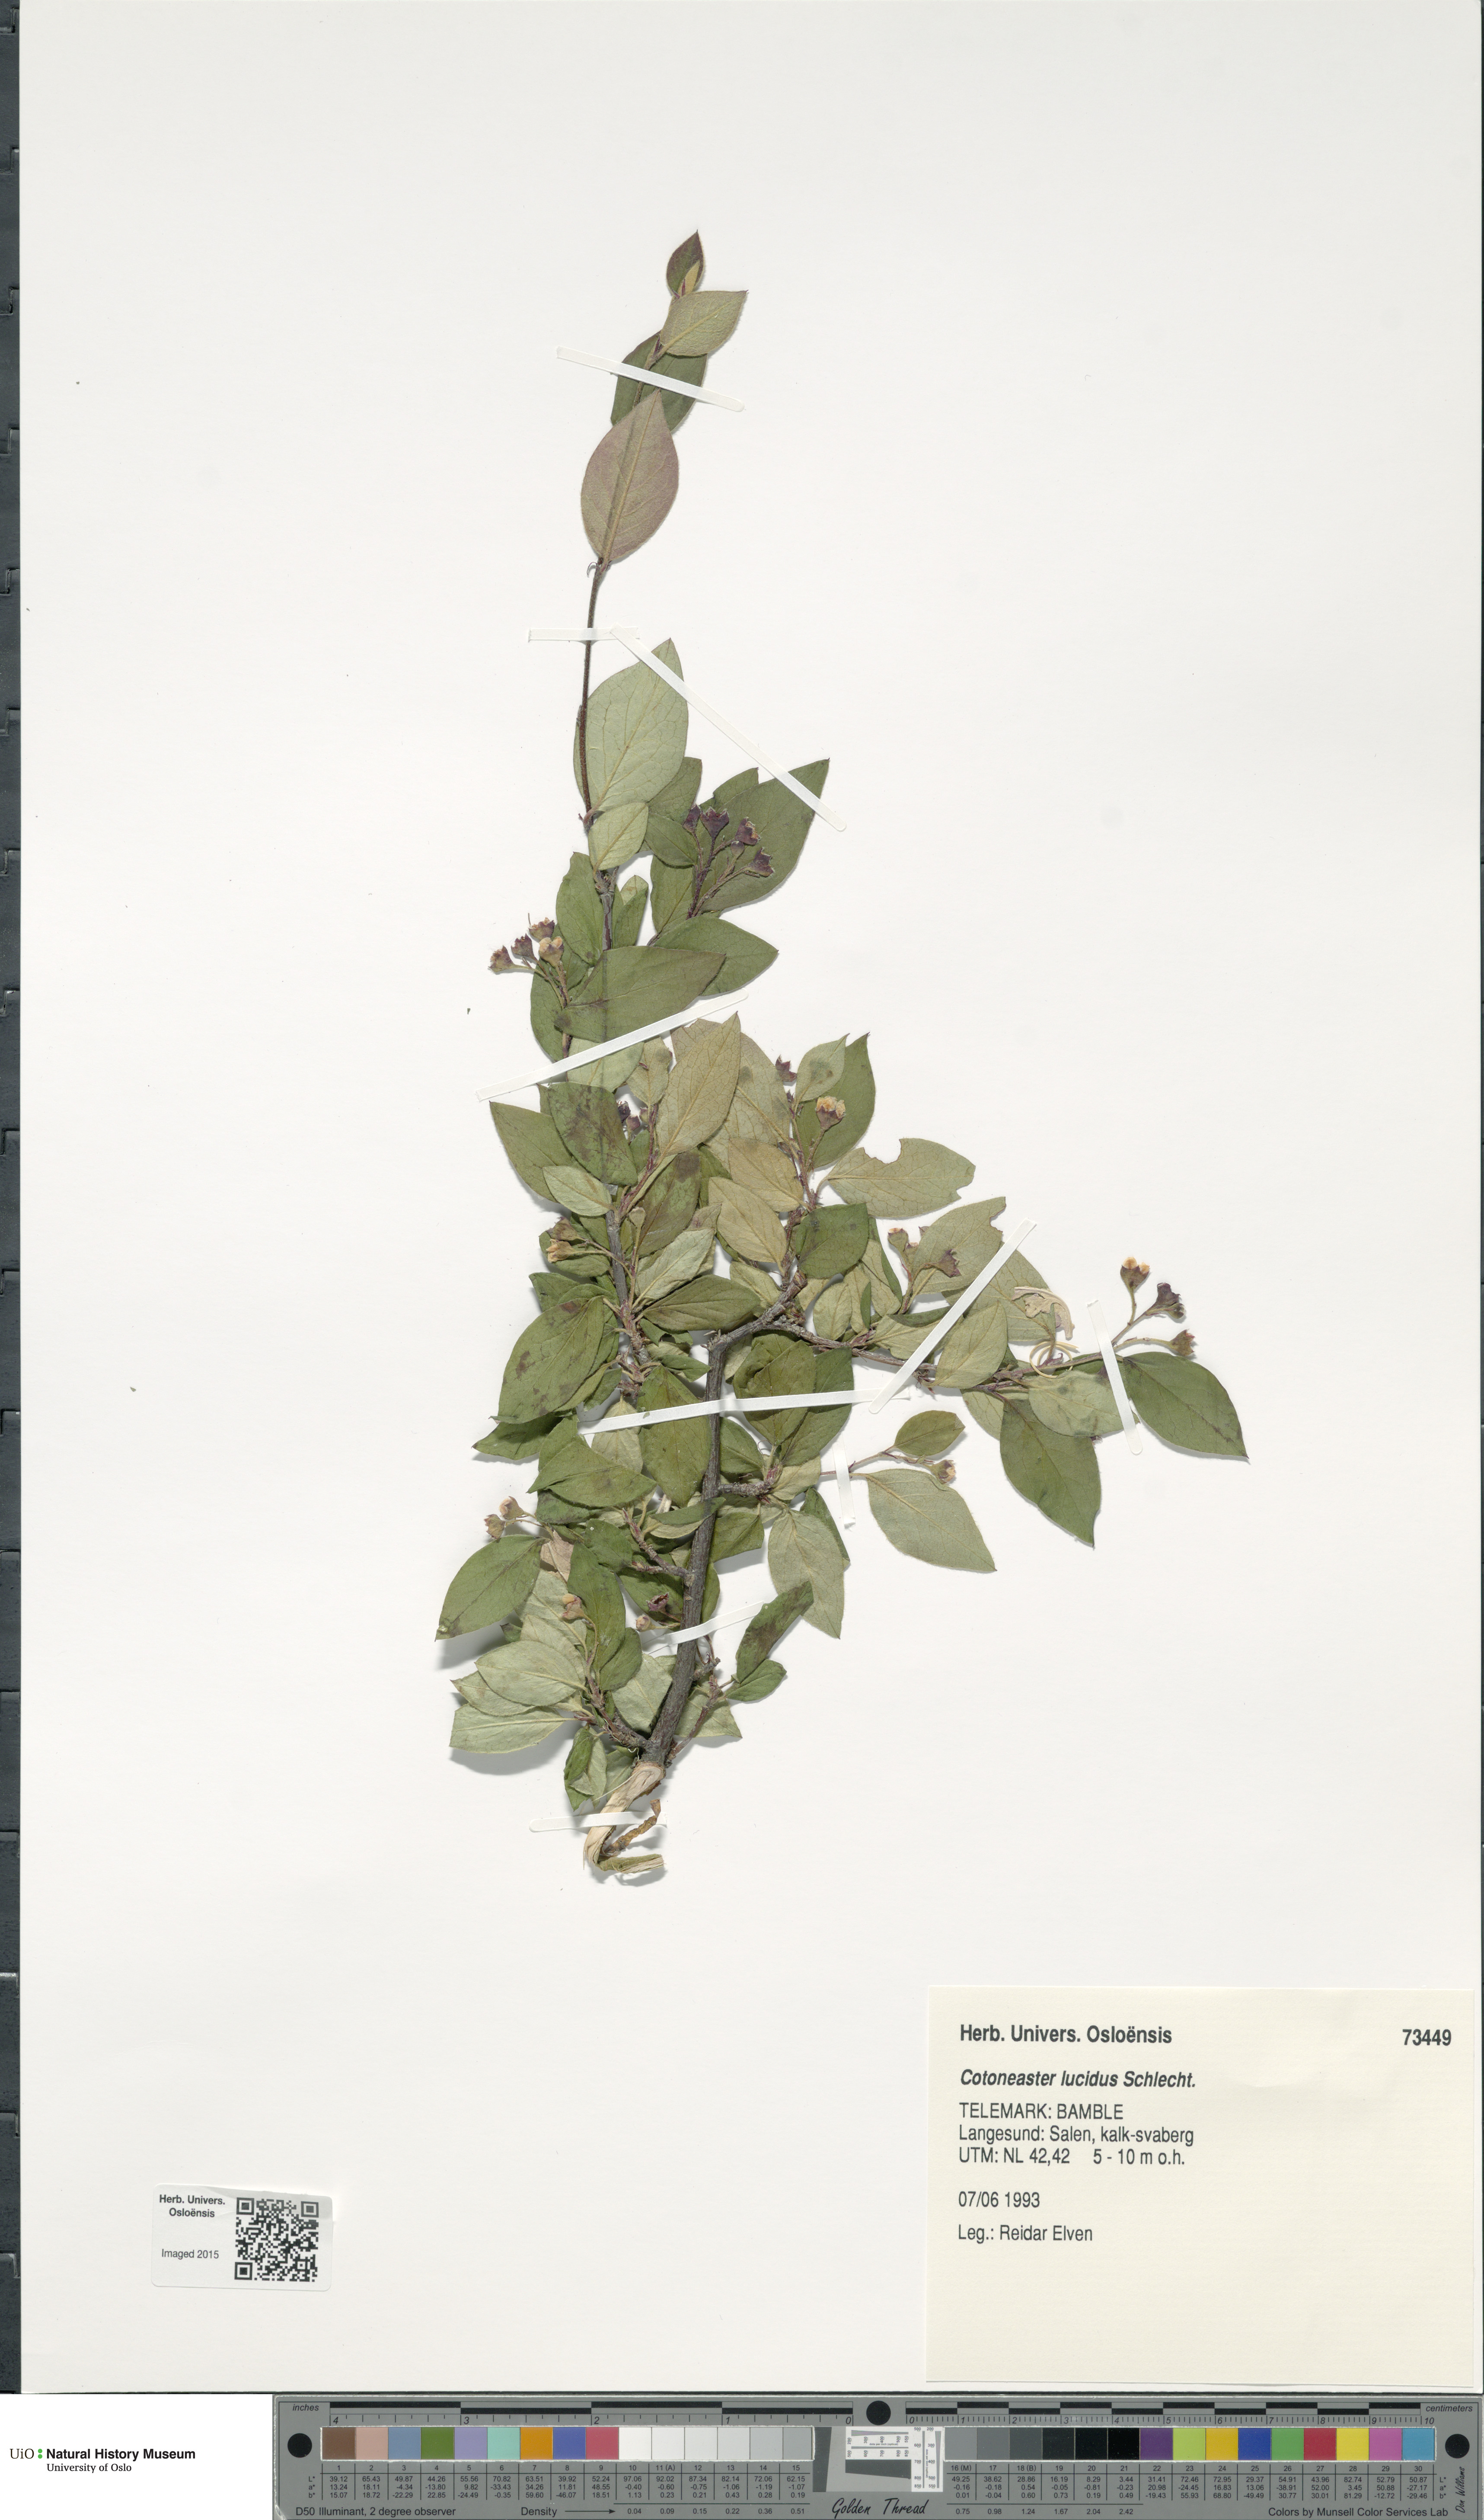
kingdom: Plantae
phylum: Tracheophyta
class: Magnoliopsida
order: Rosales
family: Rosaceae
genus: Cotoneaster
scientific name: Cotoneaster acutifolius
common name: Peking cotoneaster
